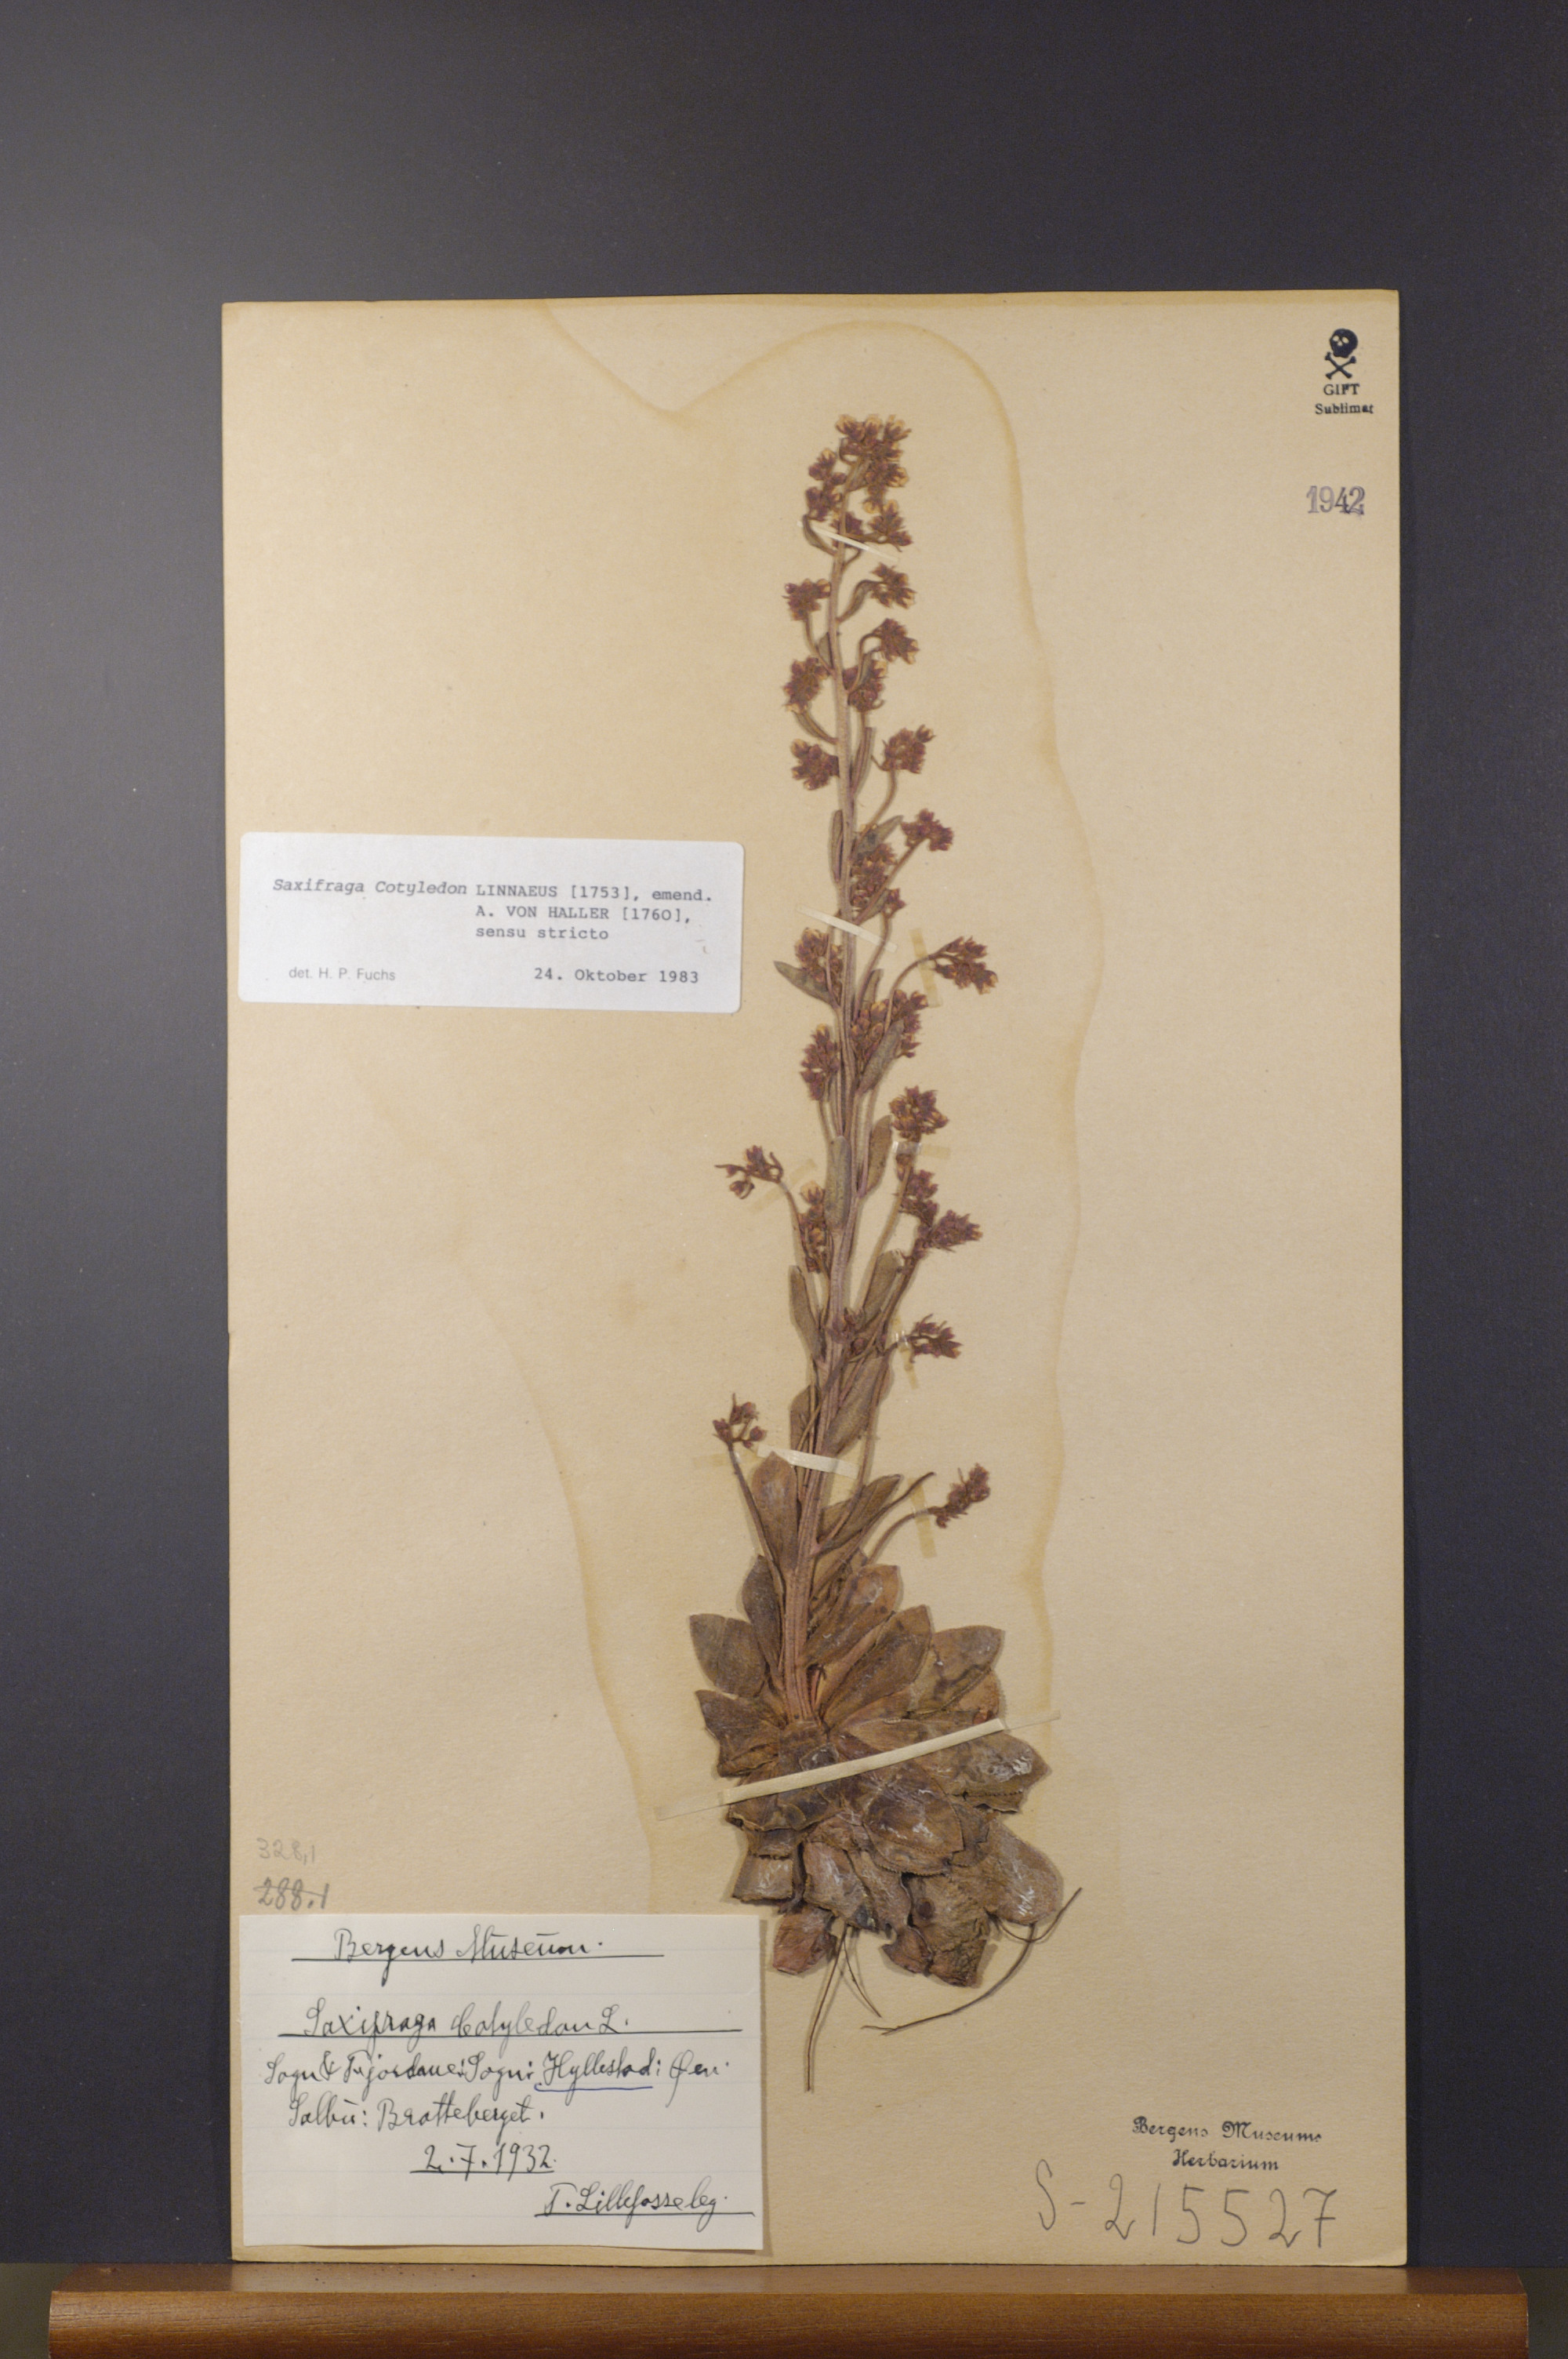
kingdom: Plantae
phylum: Tracheophyta
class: Magnoliopsida
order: Saxifragales
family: Saxifragaceae
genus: Saxifraga
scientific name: Saxifraga cotyledon
